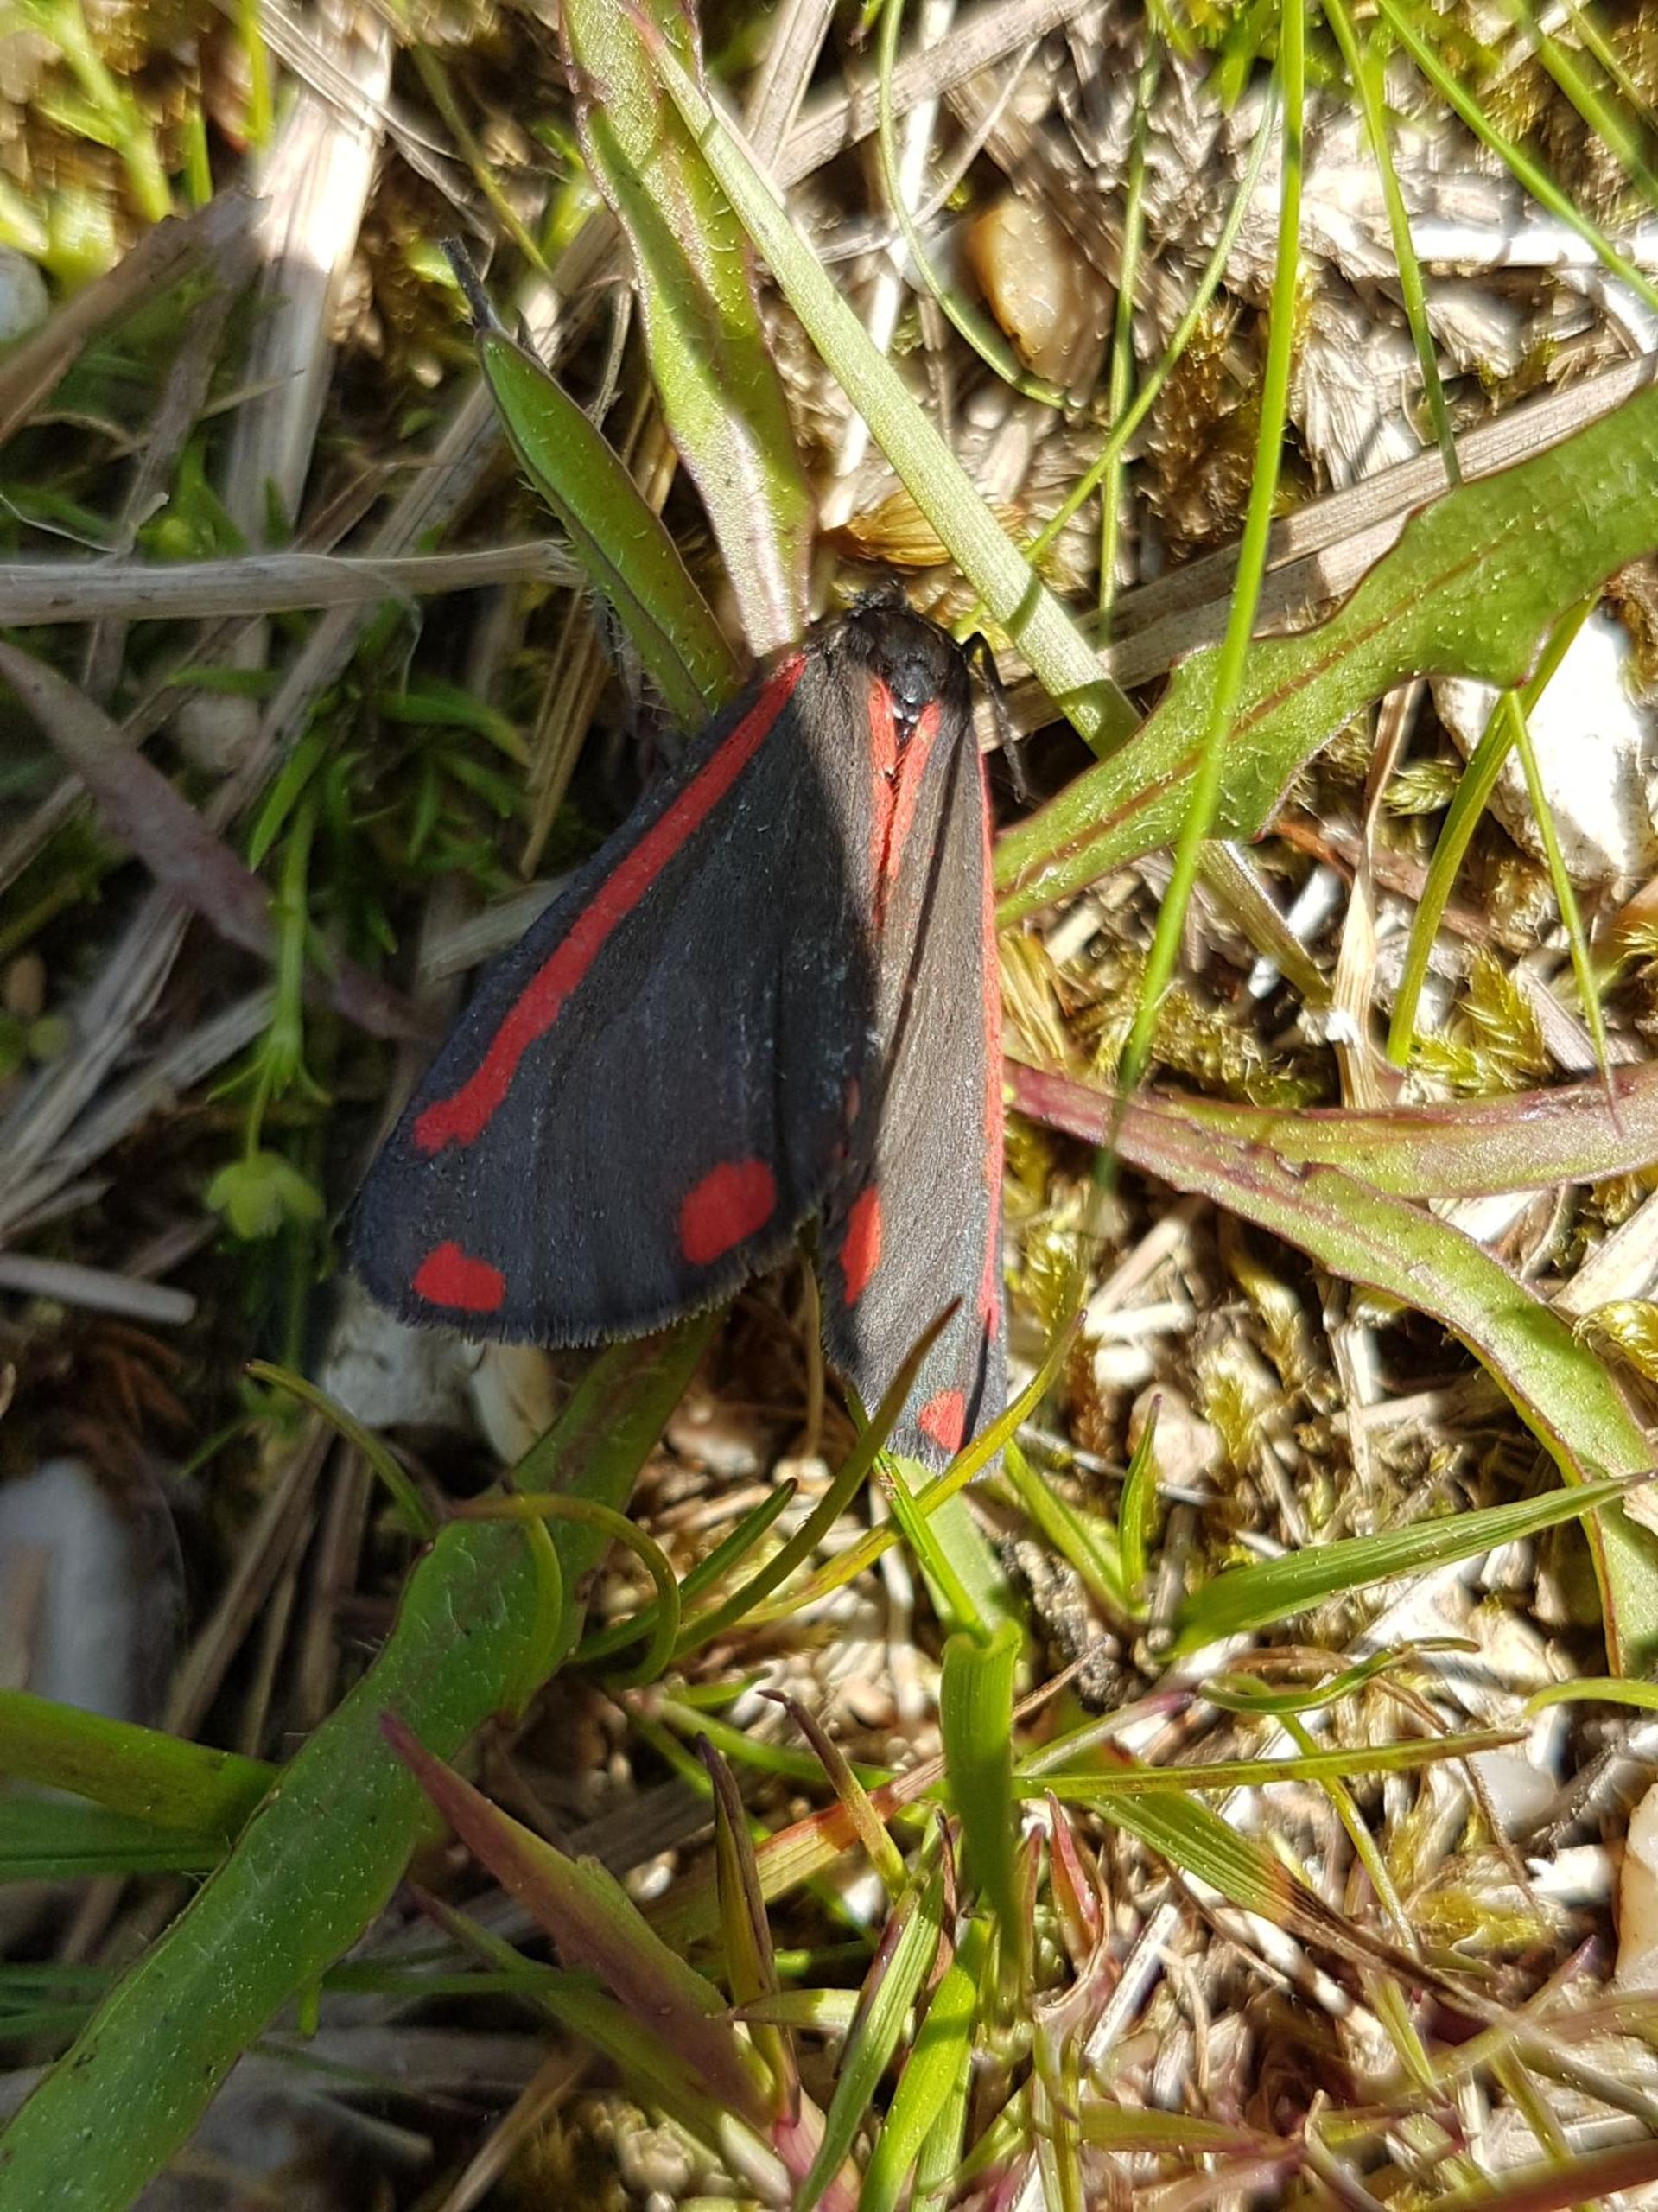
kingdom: Animalia
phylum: Arthropoda
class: Insecta
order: Lepidoptera
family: Erebidae
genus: Tyria
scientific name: Tyria jacobaeae
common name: Blodplet
